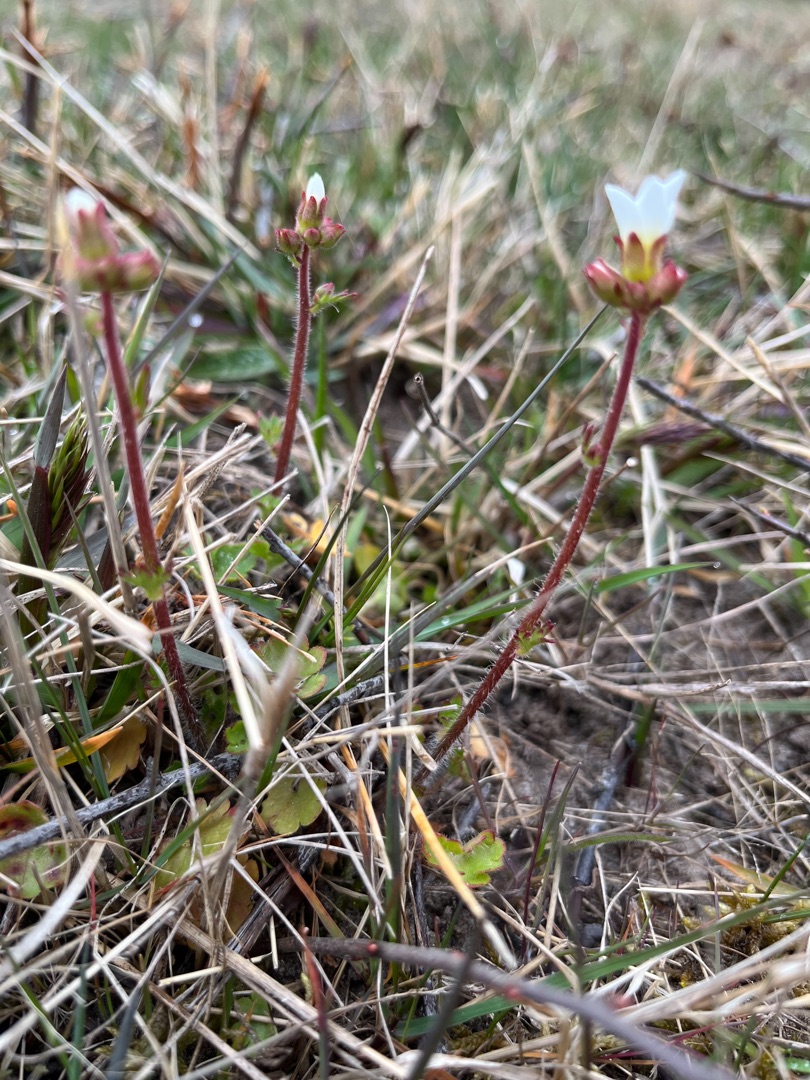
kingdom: Plantae
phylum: Tracheophyta
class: Magnoliopsida
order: Saxifragales
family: Saxifragaceae
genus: Saxifraga
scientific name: Saxifraga granulata
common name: Kornet stenbræk
